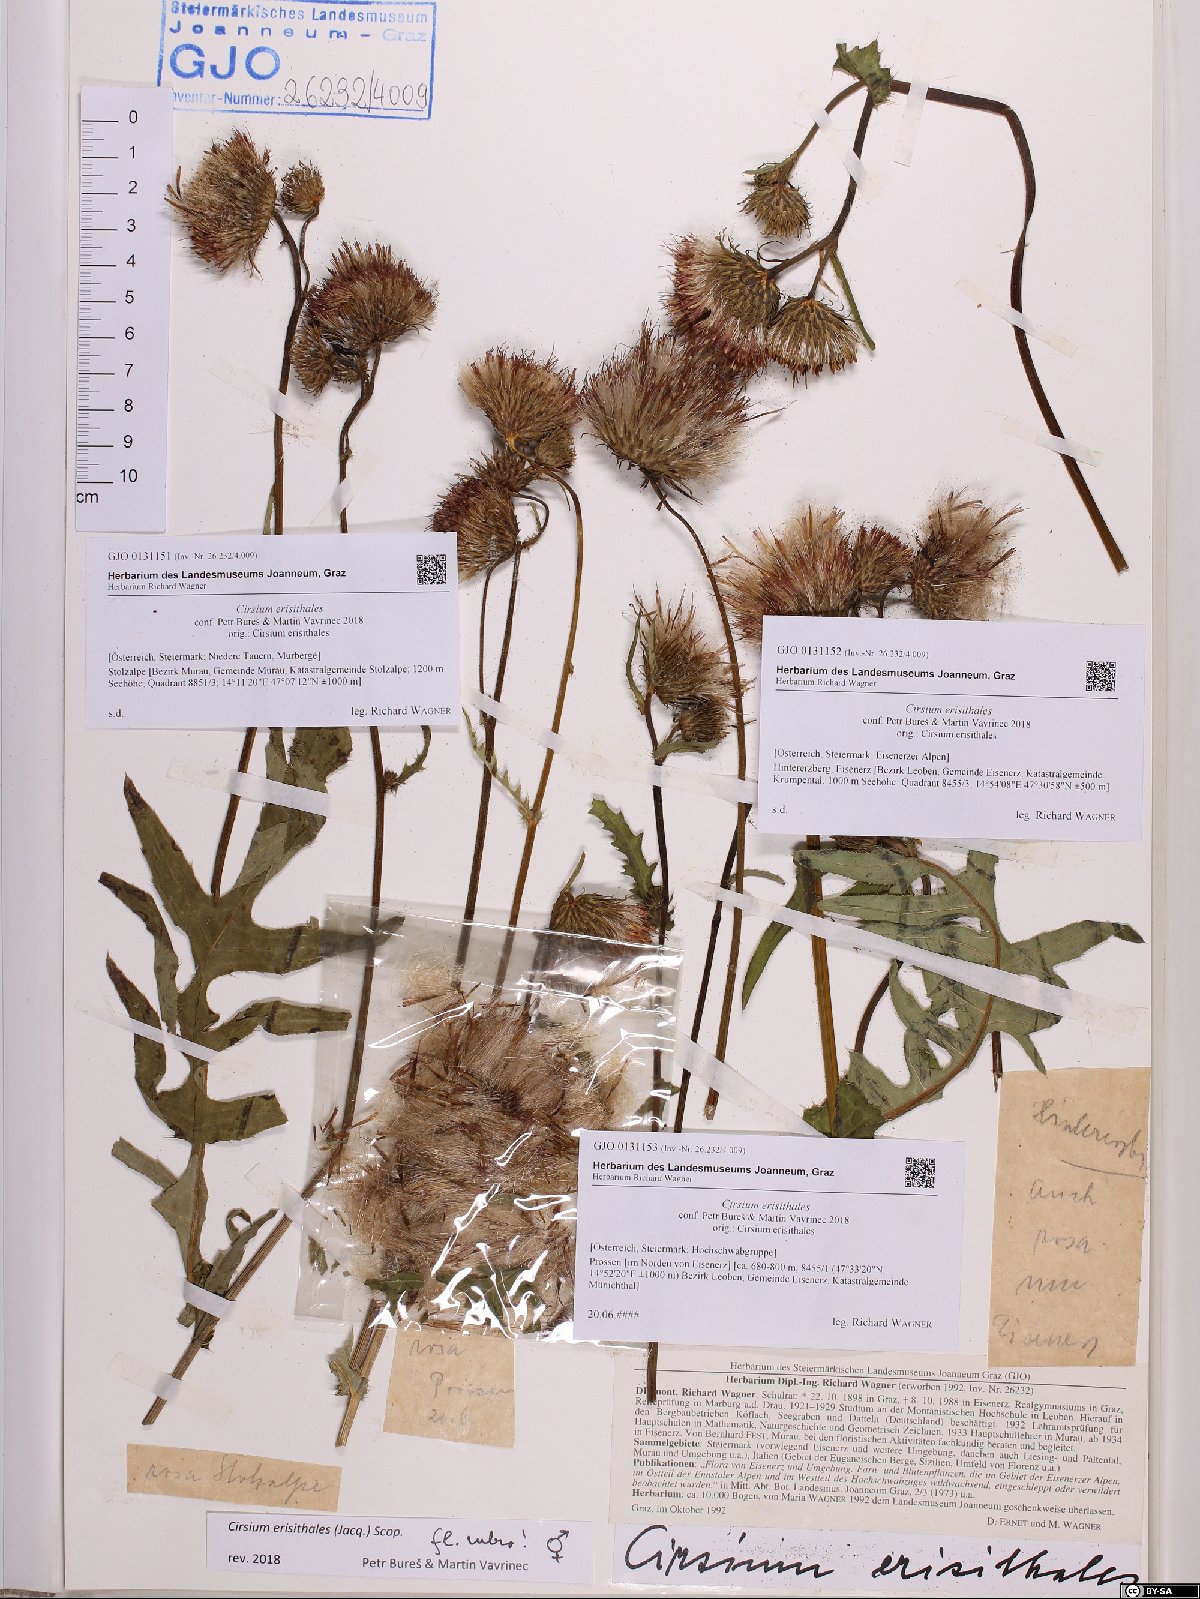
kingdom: Plantae
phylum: Tracheophyta
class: Magnoliopsida
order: Asterales
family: Asteraceae
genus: Cirsium
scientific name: Cirsium erisithales
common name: Yellow thistle
